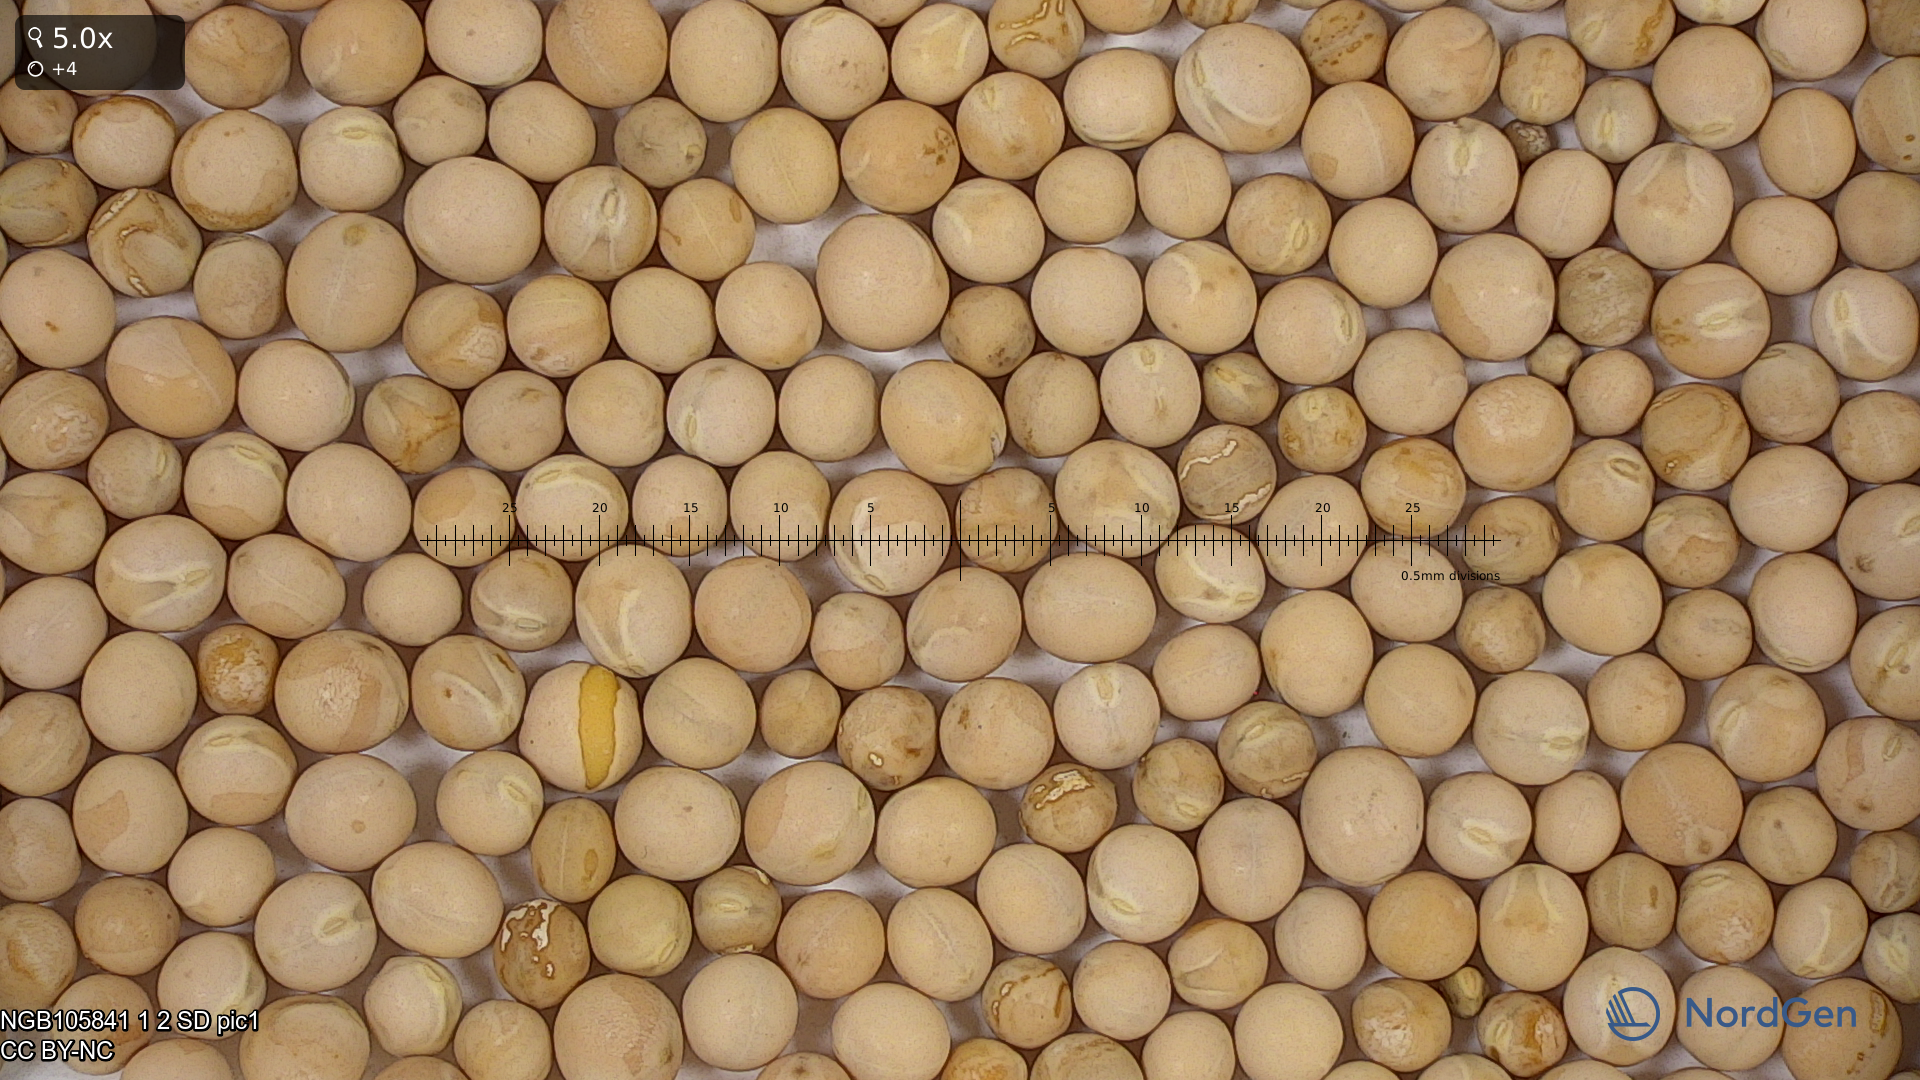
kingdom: Plantae
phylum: Tracheophyta
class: Magnoliopsida
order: Fabales
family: Fabaceae
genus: Lathyrus
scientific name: Lathyrus oleraceus
